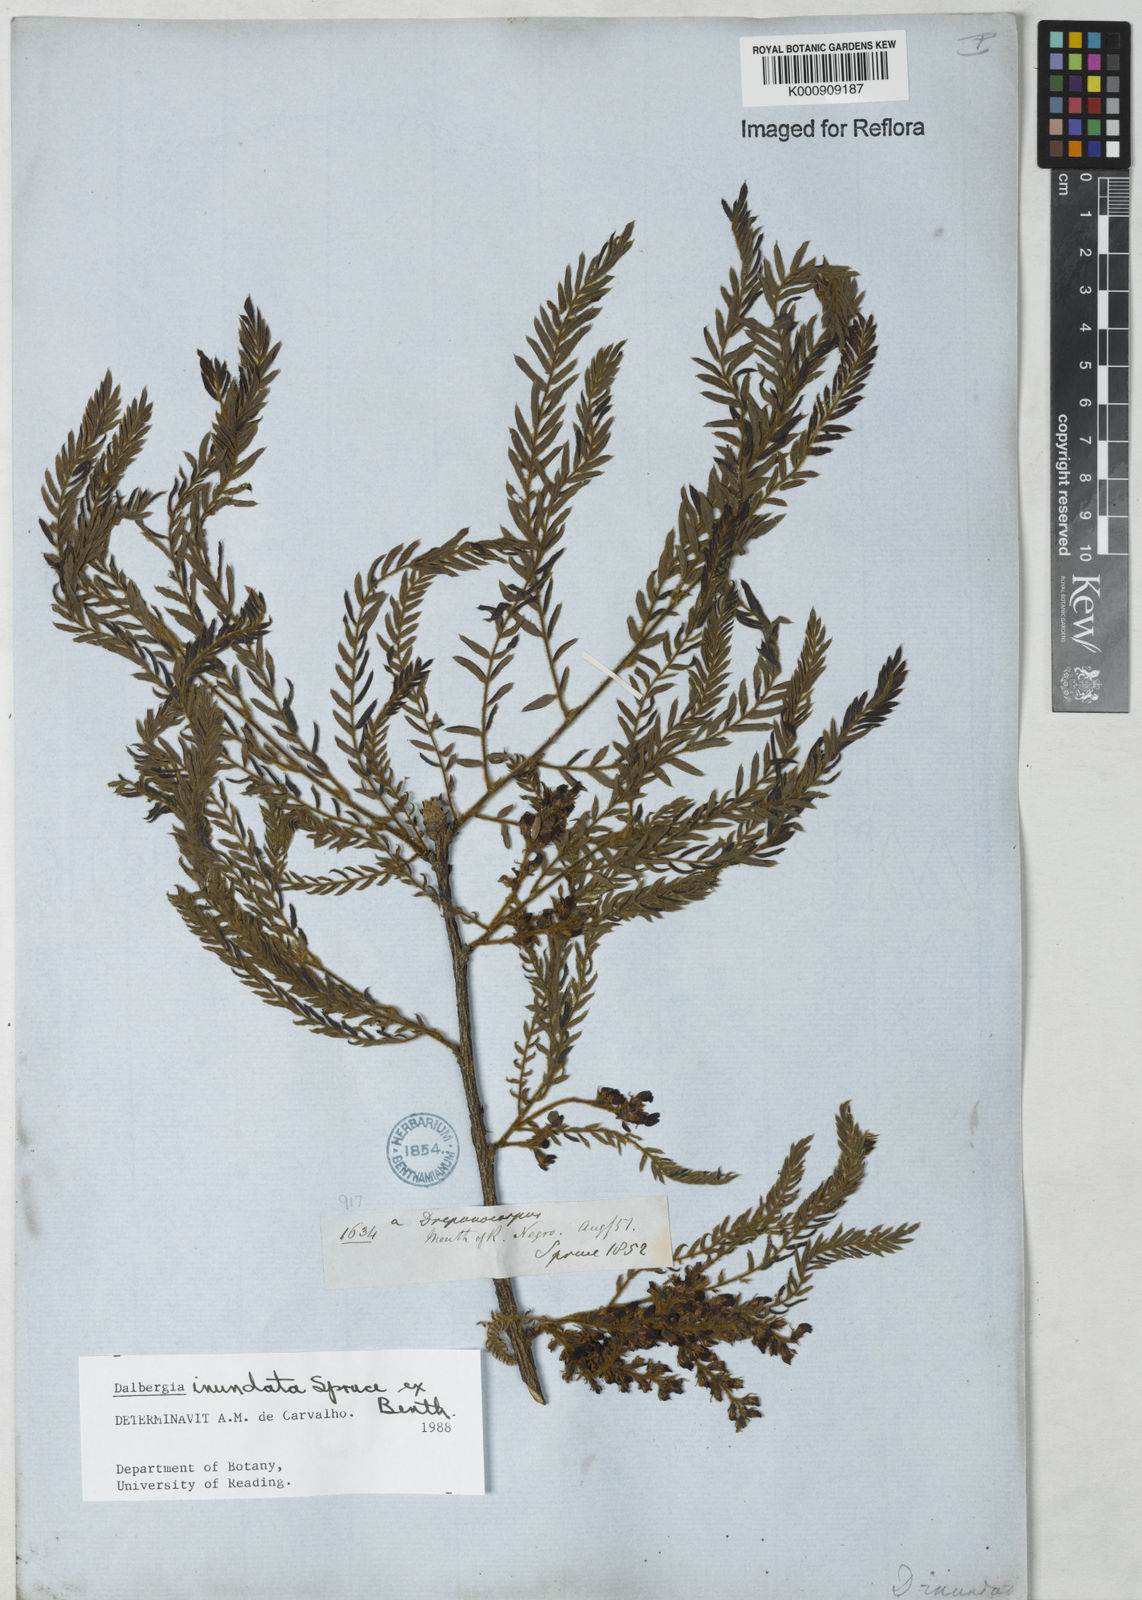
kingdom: Plantae
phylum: Tracheophyta
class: Magnoliopsida
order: Fabales
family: Fabaceae
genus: Dalbergia
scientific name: Dalbergia inundata
